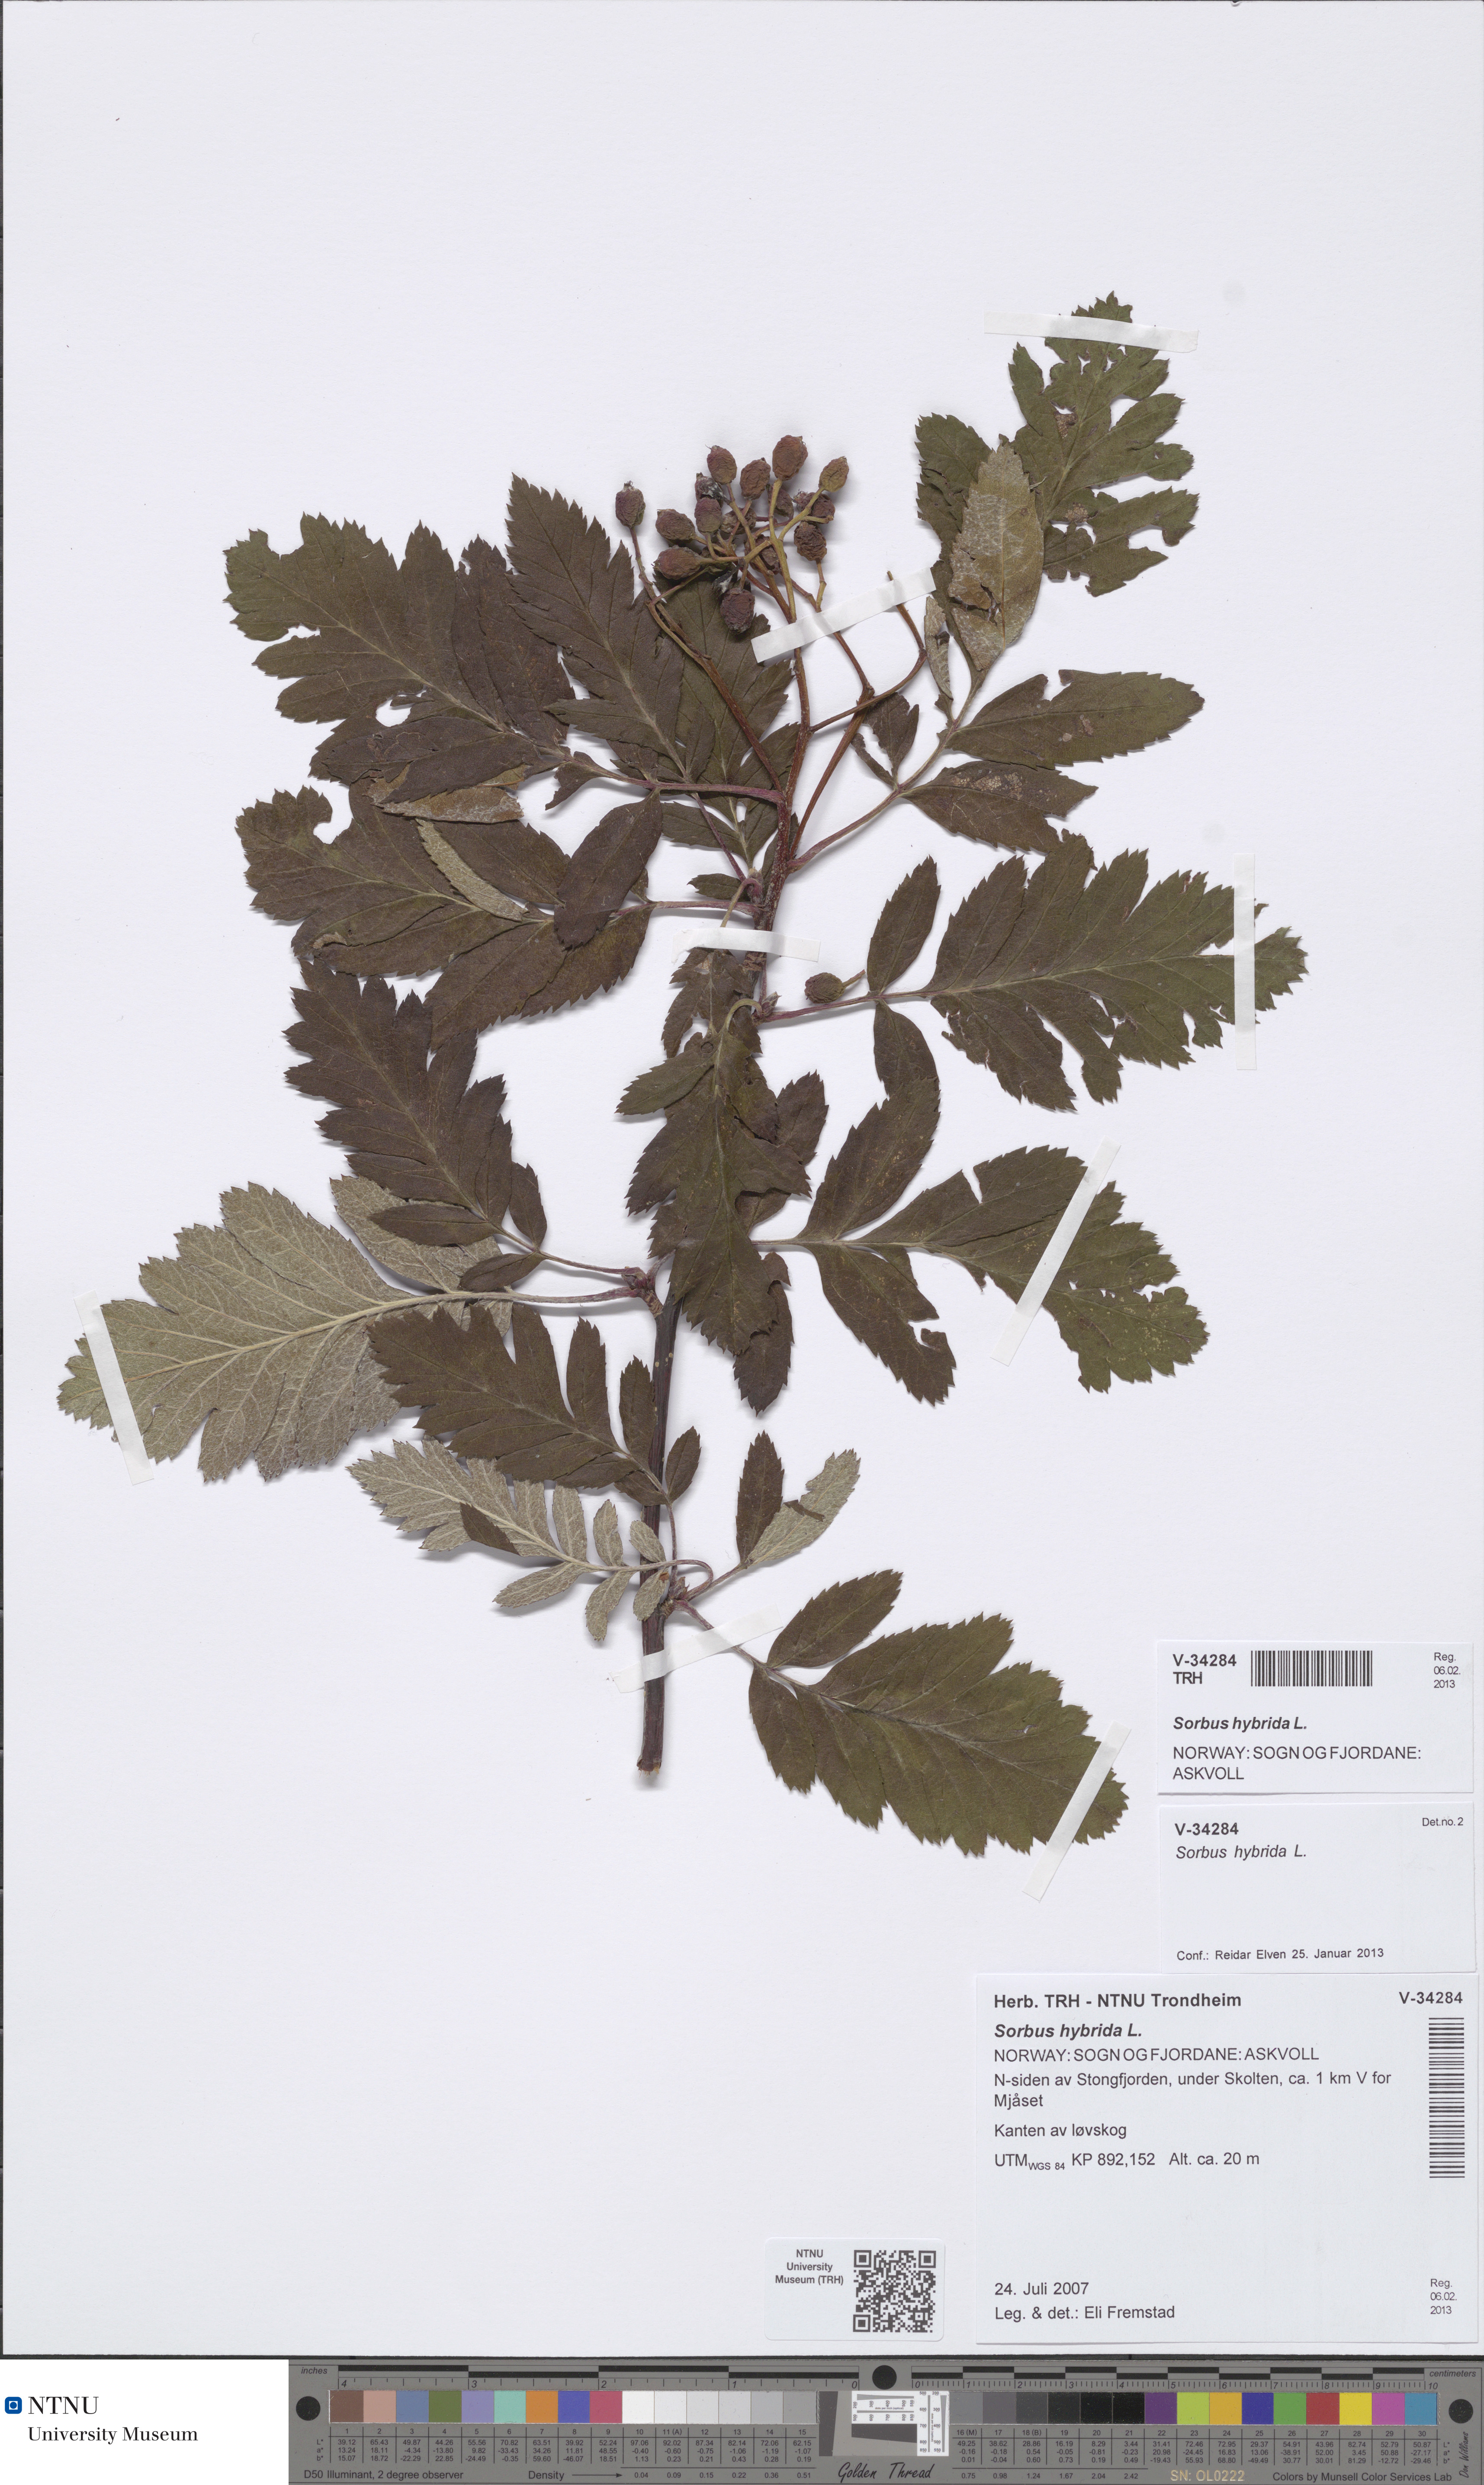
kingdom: Plantae
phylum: Tracheophyta
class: Magnoliopsida
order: Rosales
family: Rosaceae
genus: Hedlundia
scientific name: Hedlundia hybrida
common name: Swedish service-tree
